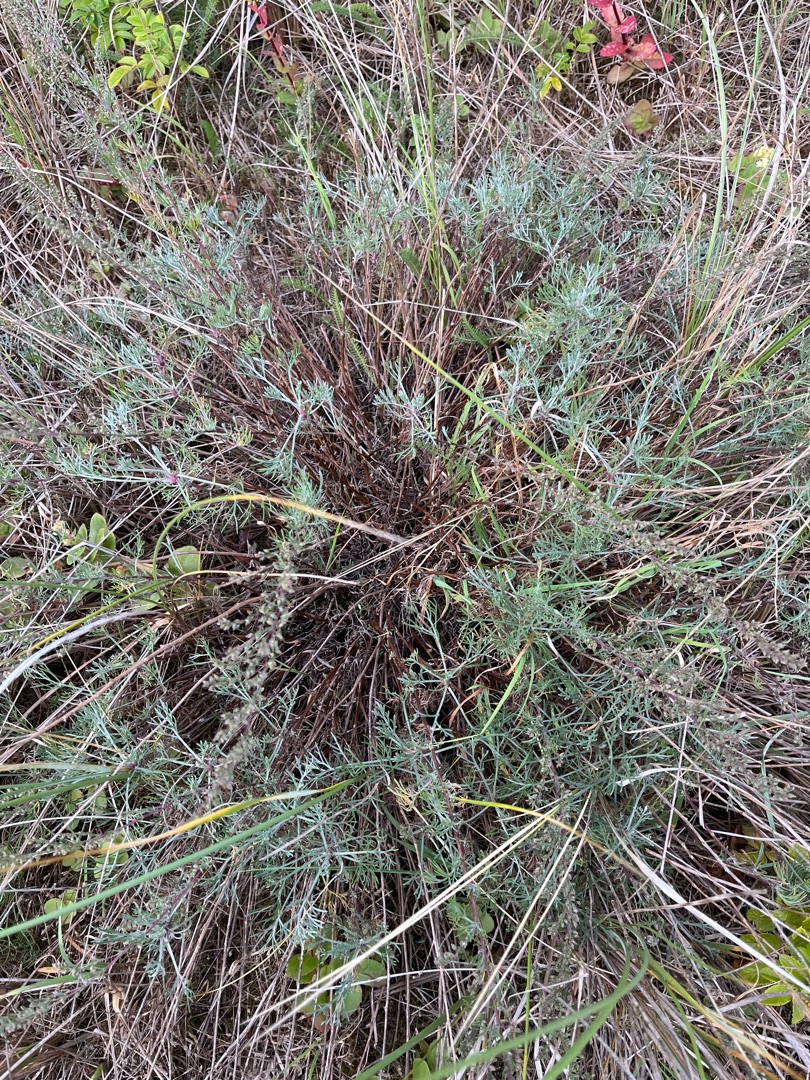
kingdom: Plantae
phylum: Tracheophyta
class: Magnoliopsida
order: Asterales
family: Asteraceae
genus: Artemisia
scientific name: Artemisia campestris
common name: Mark-bynke
